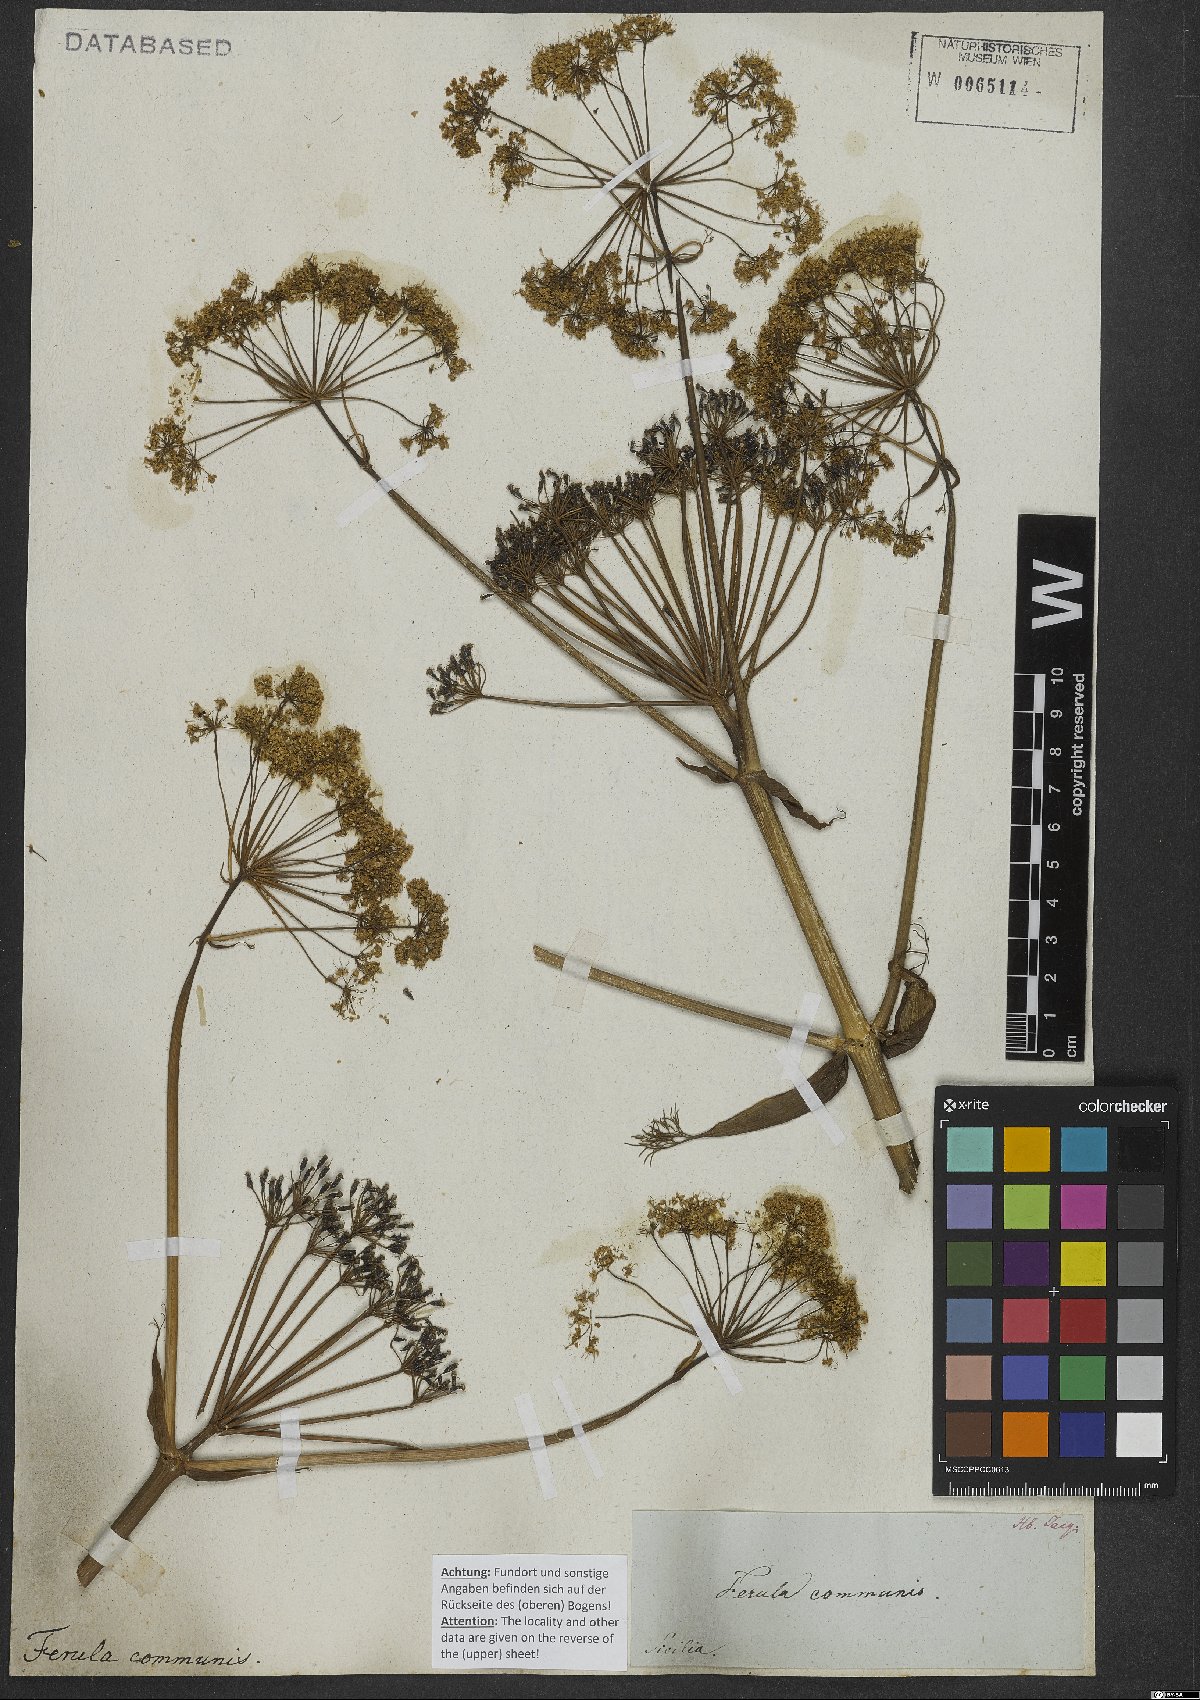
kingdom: Plantae
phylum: Tracheophyta
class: Magnoliopsida
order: Apiales
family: Apiaceae
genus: Ferula
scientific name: Ferula communis
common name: Giant fennel
